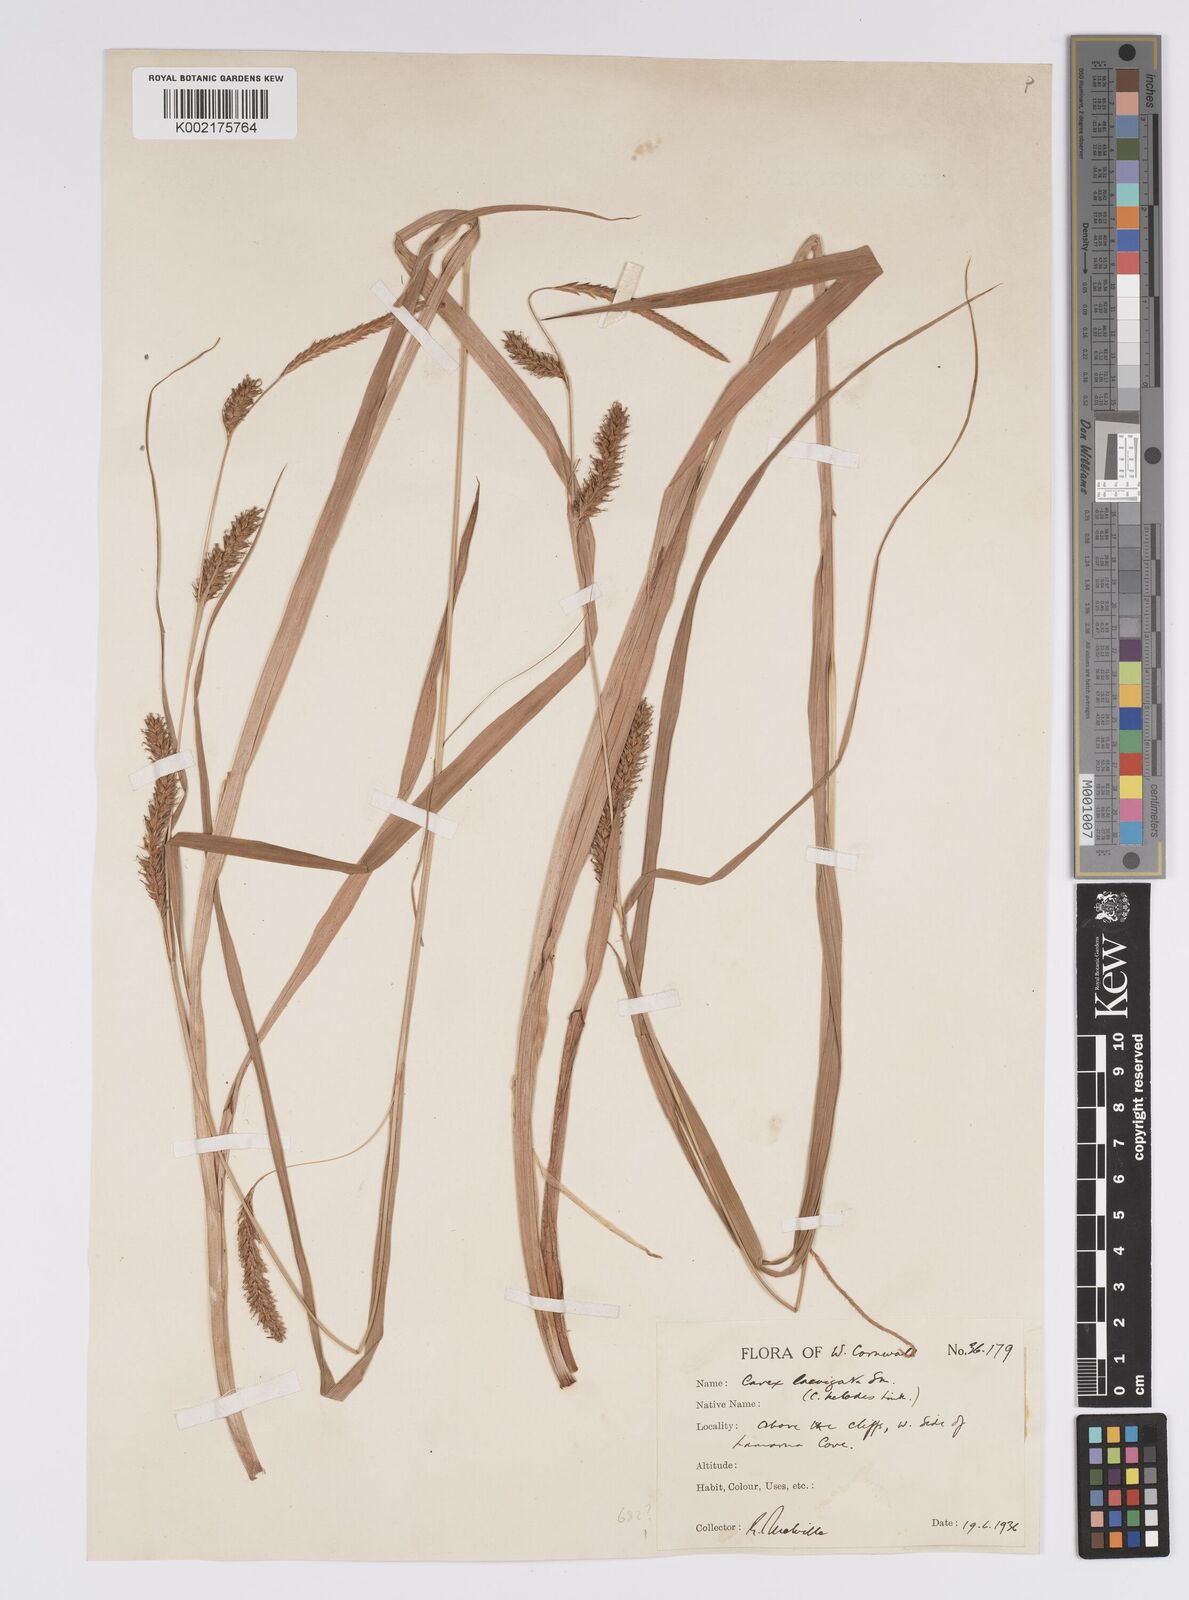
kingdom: Plantae
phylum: Tracheophyta
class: Liliopsida
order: Poales
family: Cyperaceae
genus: Carex
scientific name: Carex laevigata
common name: Smooth-stalked sedge
